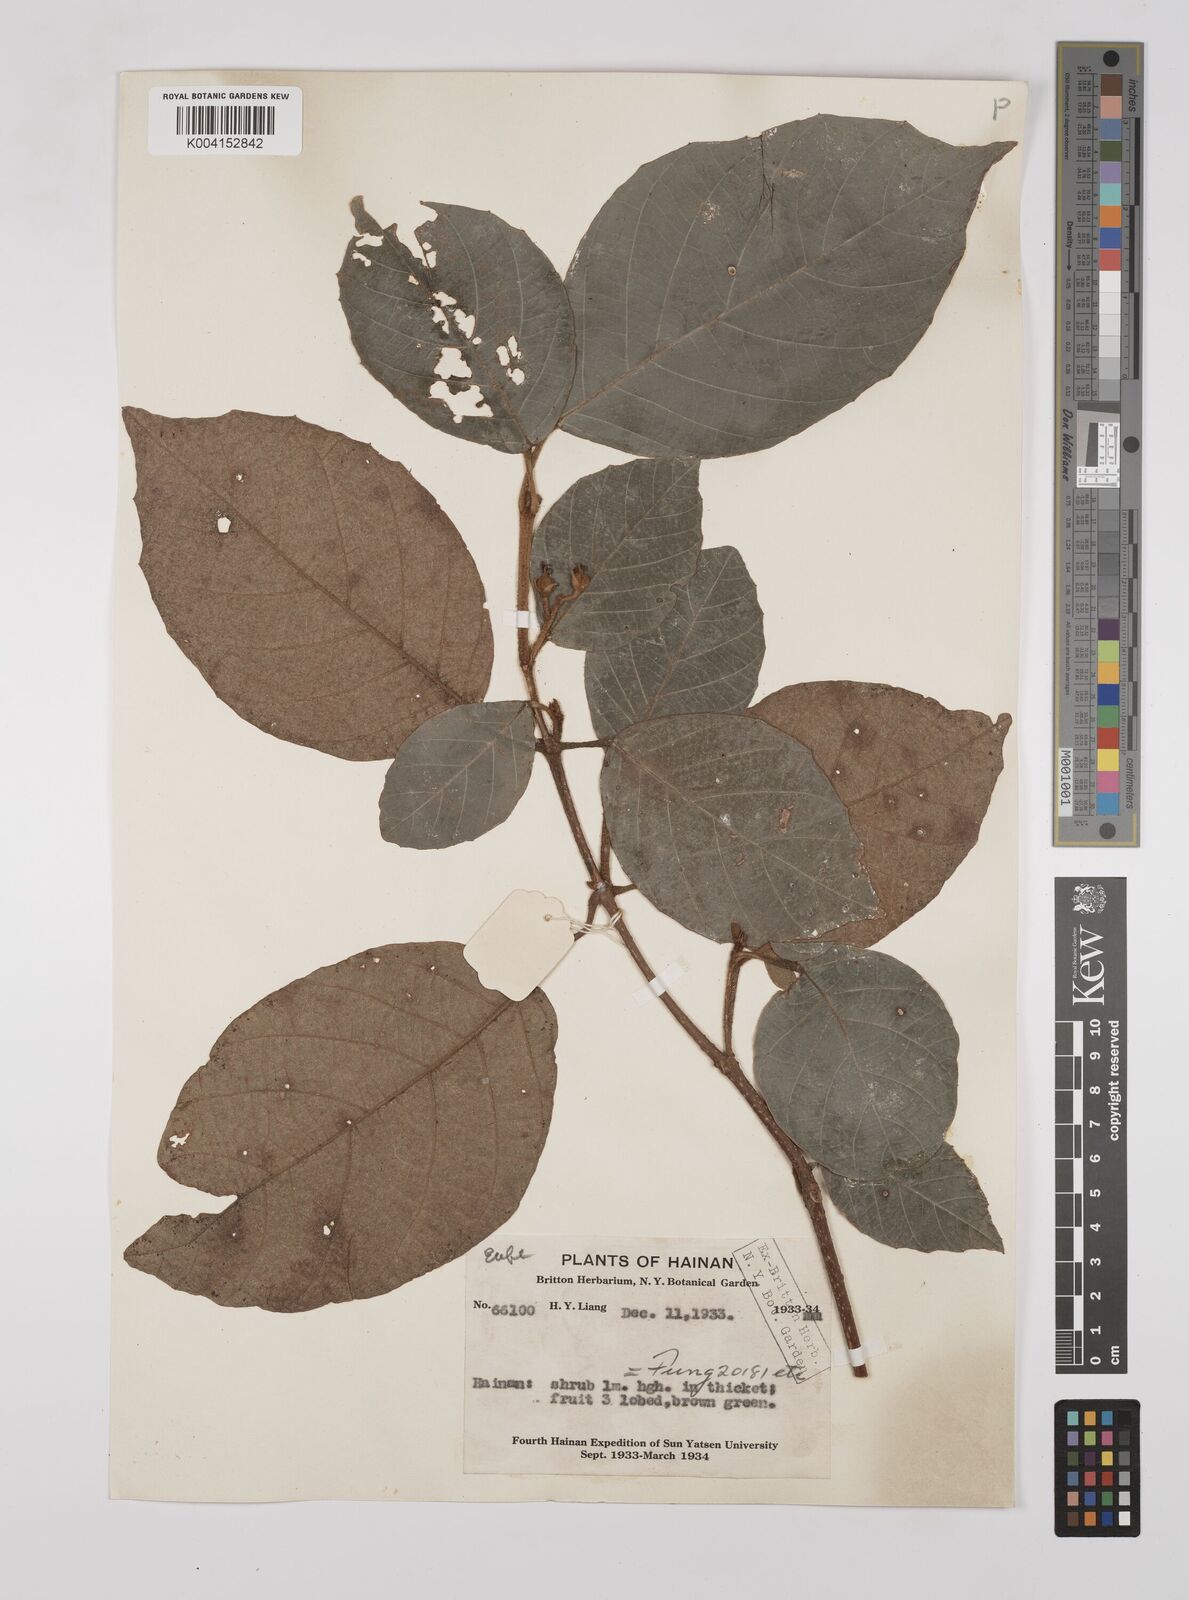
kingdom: Plantae
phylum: Tracheophyta
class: Magnoliopsida
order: Malpighiales
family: Euphorbiaceae
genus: Mallotus
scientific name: Mallotus anomalus
